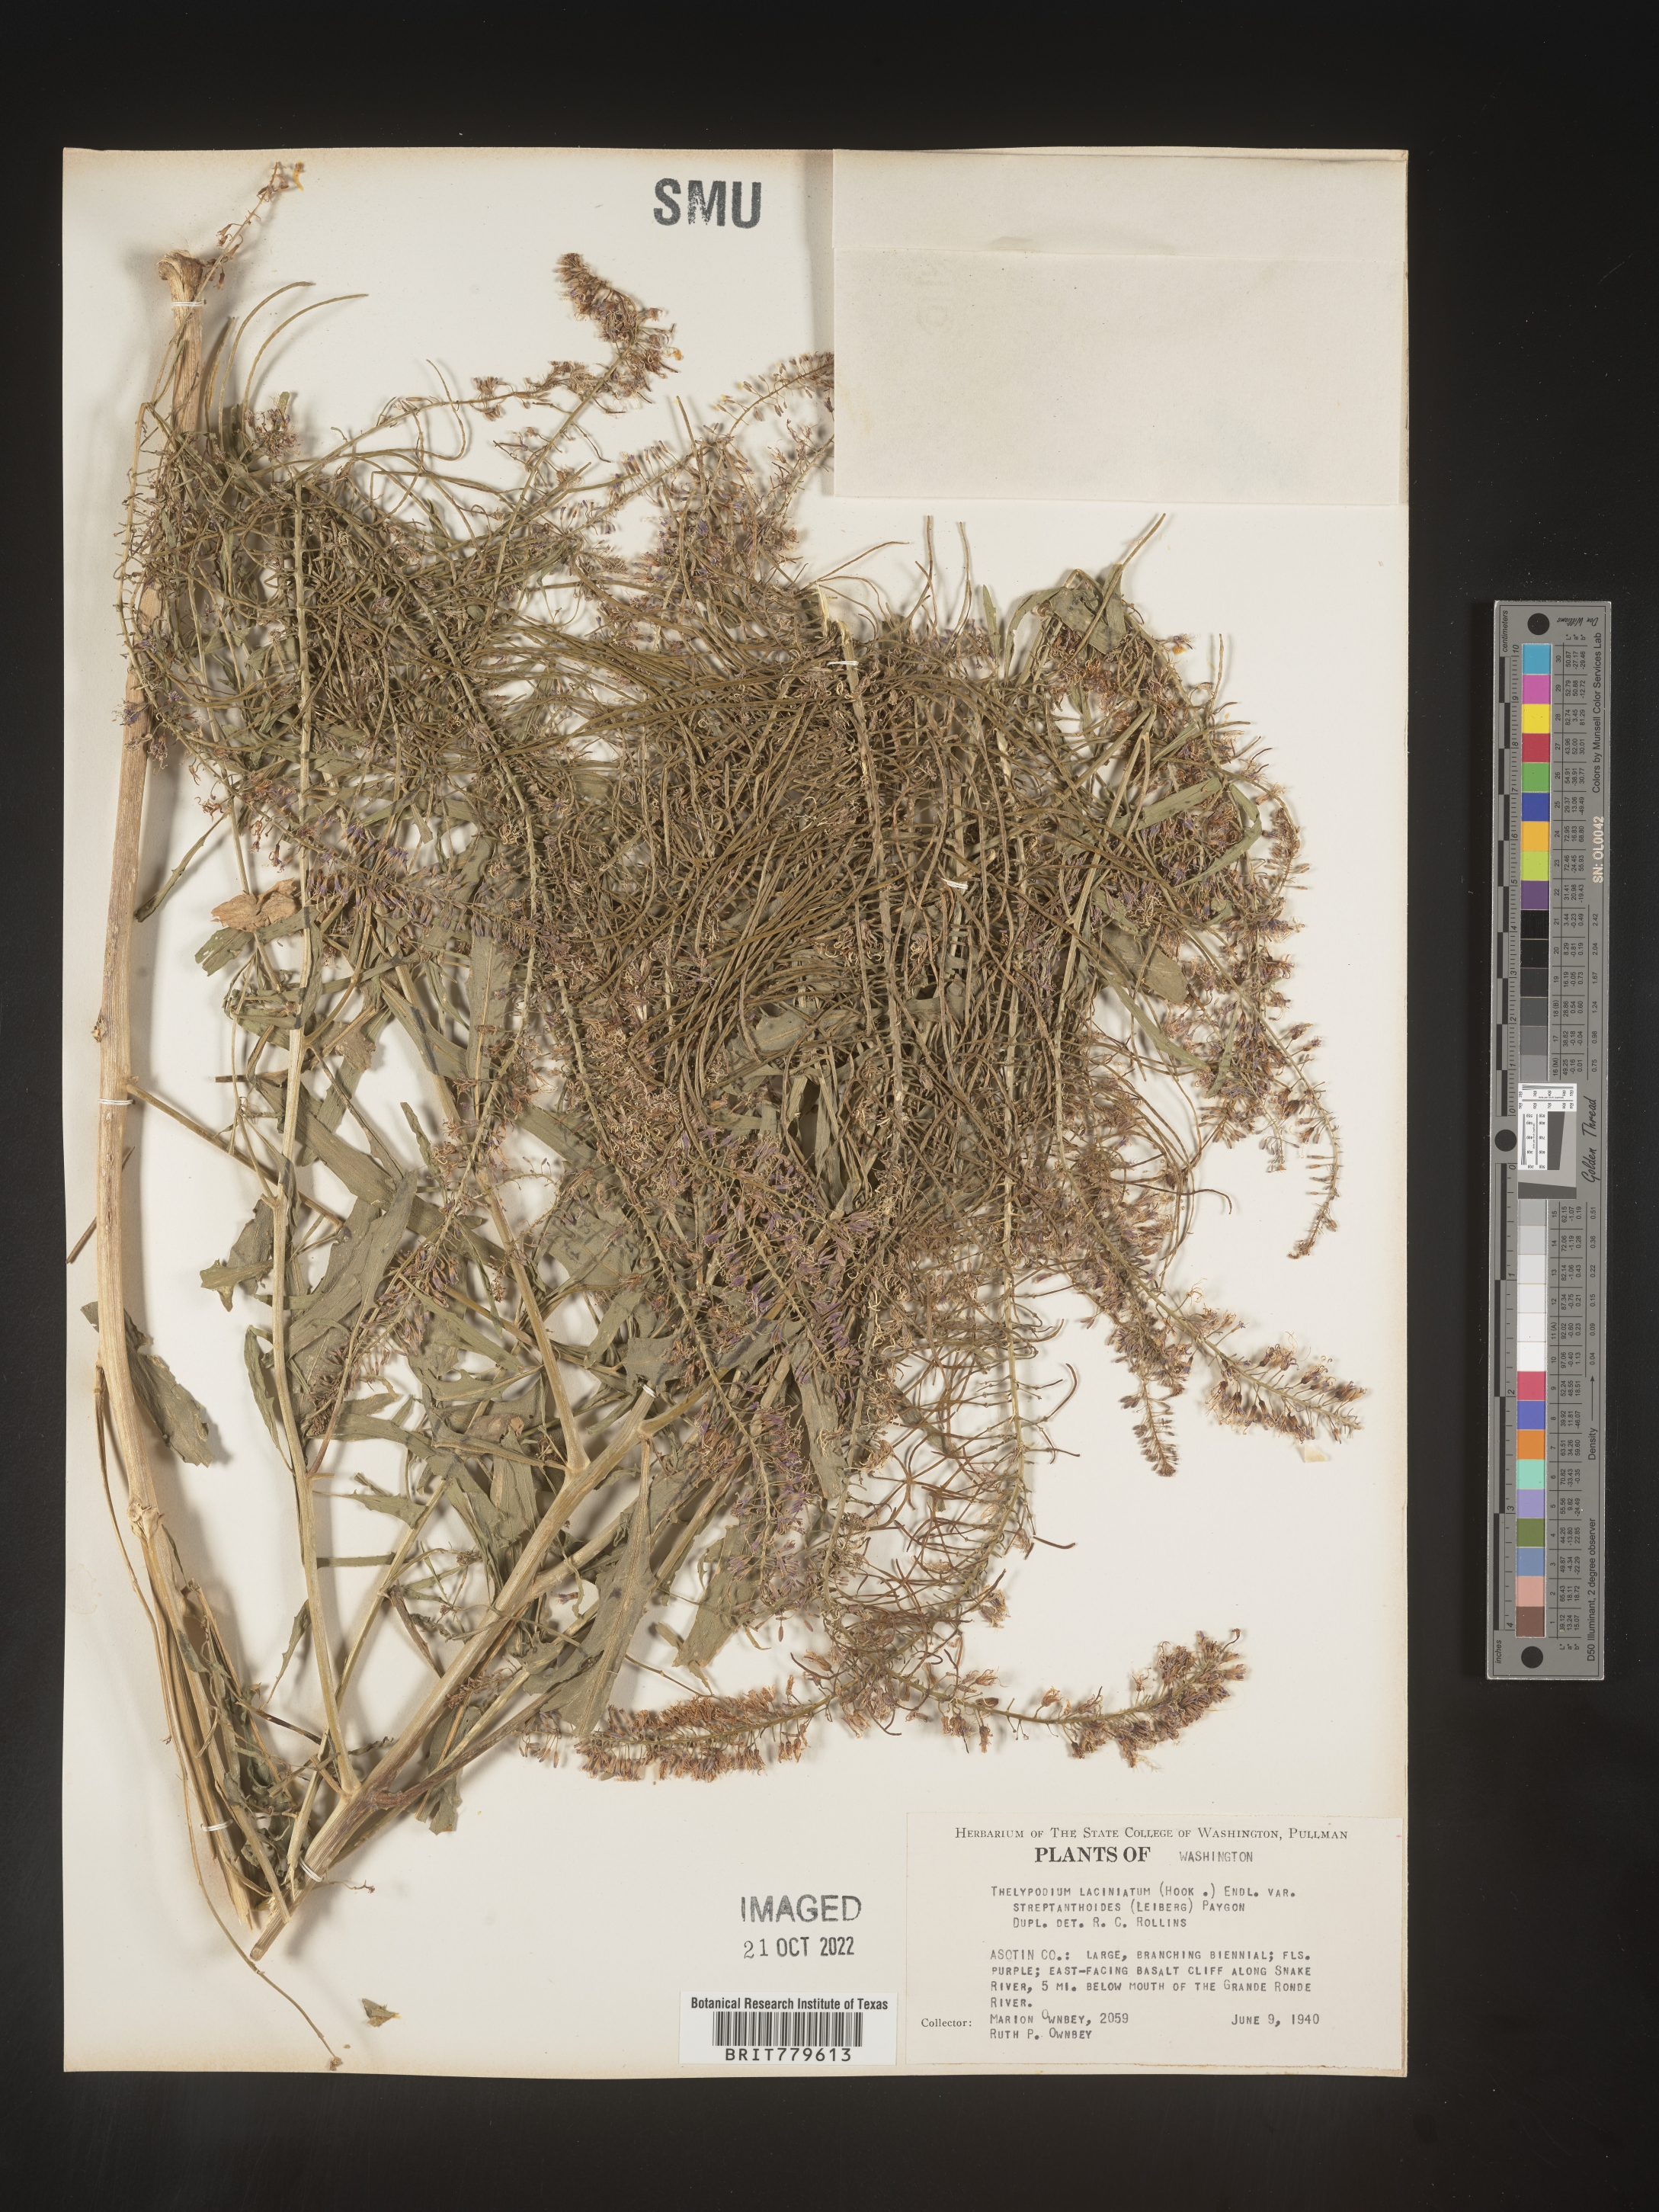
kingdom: Plantae
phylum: Tracheophyta
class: Magnoliopsida
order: Brassicales
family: Brassicaceae
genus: Thelypodium
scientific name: Thelypodium
